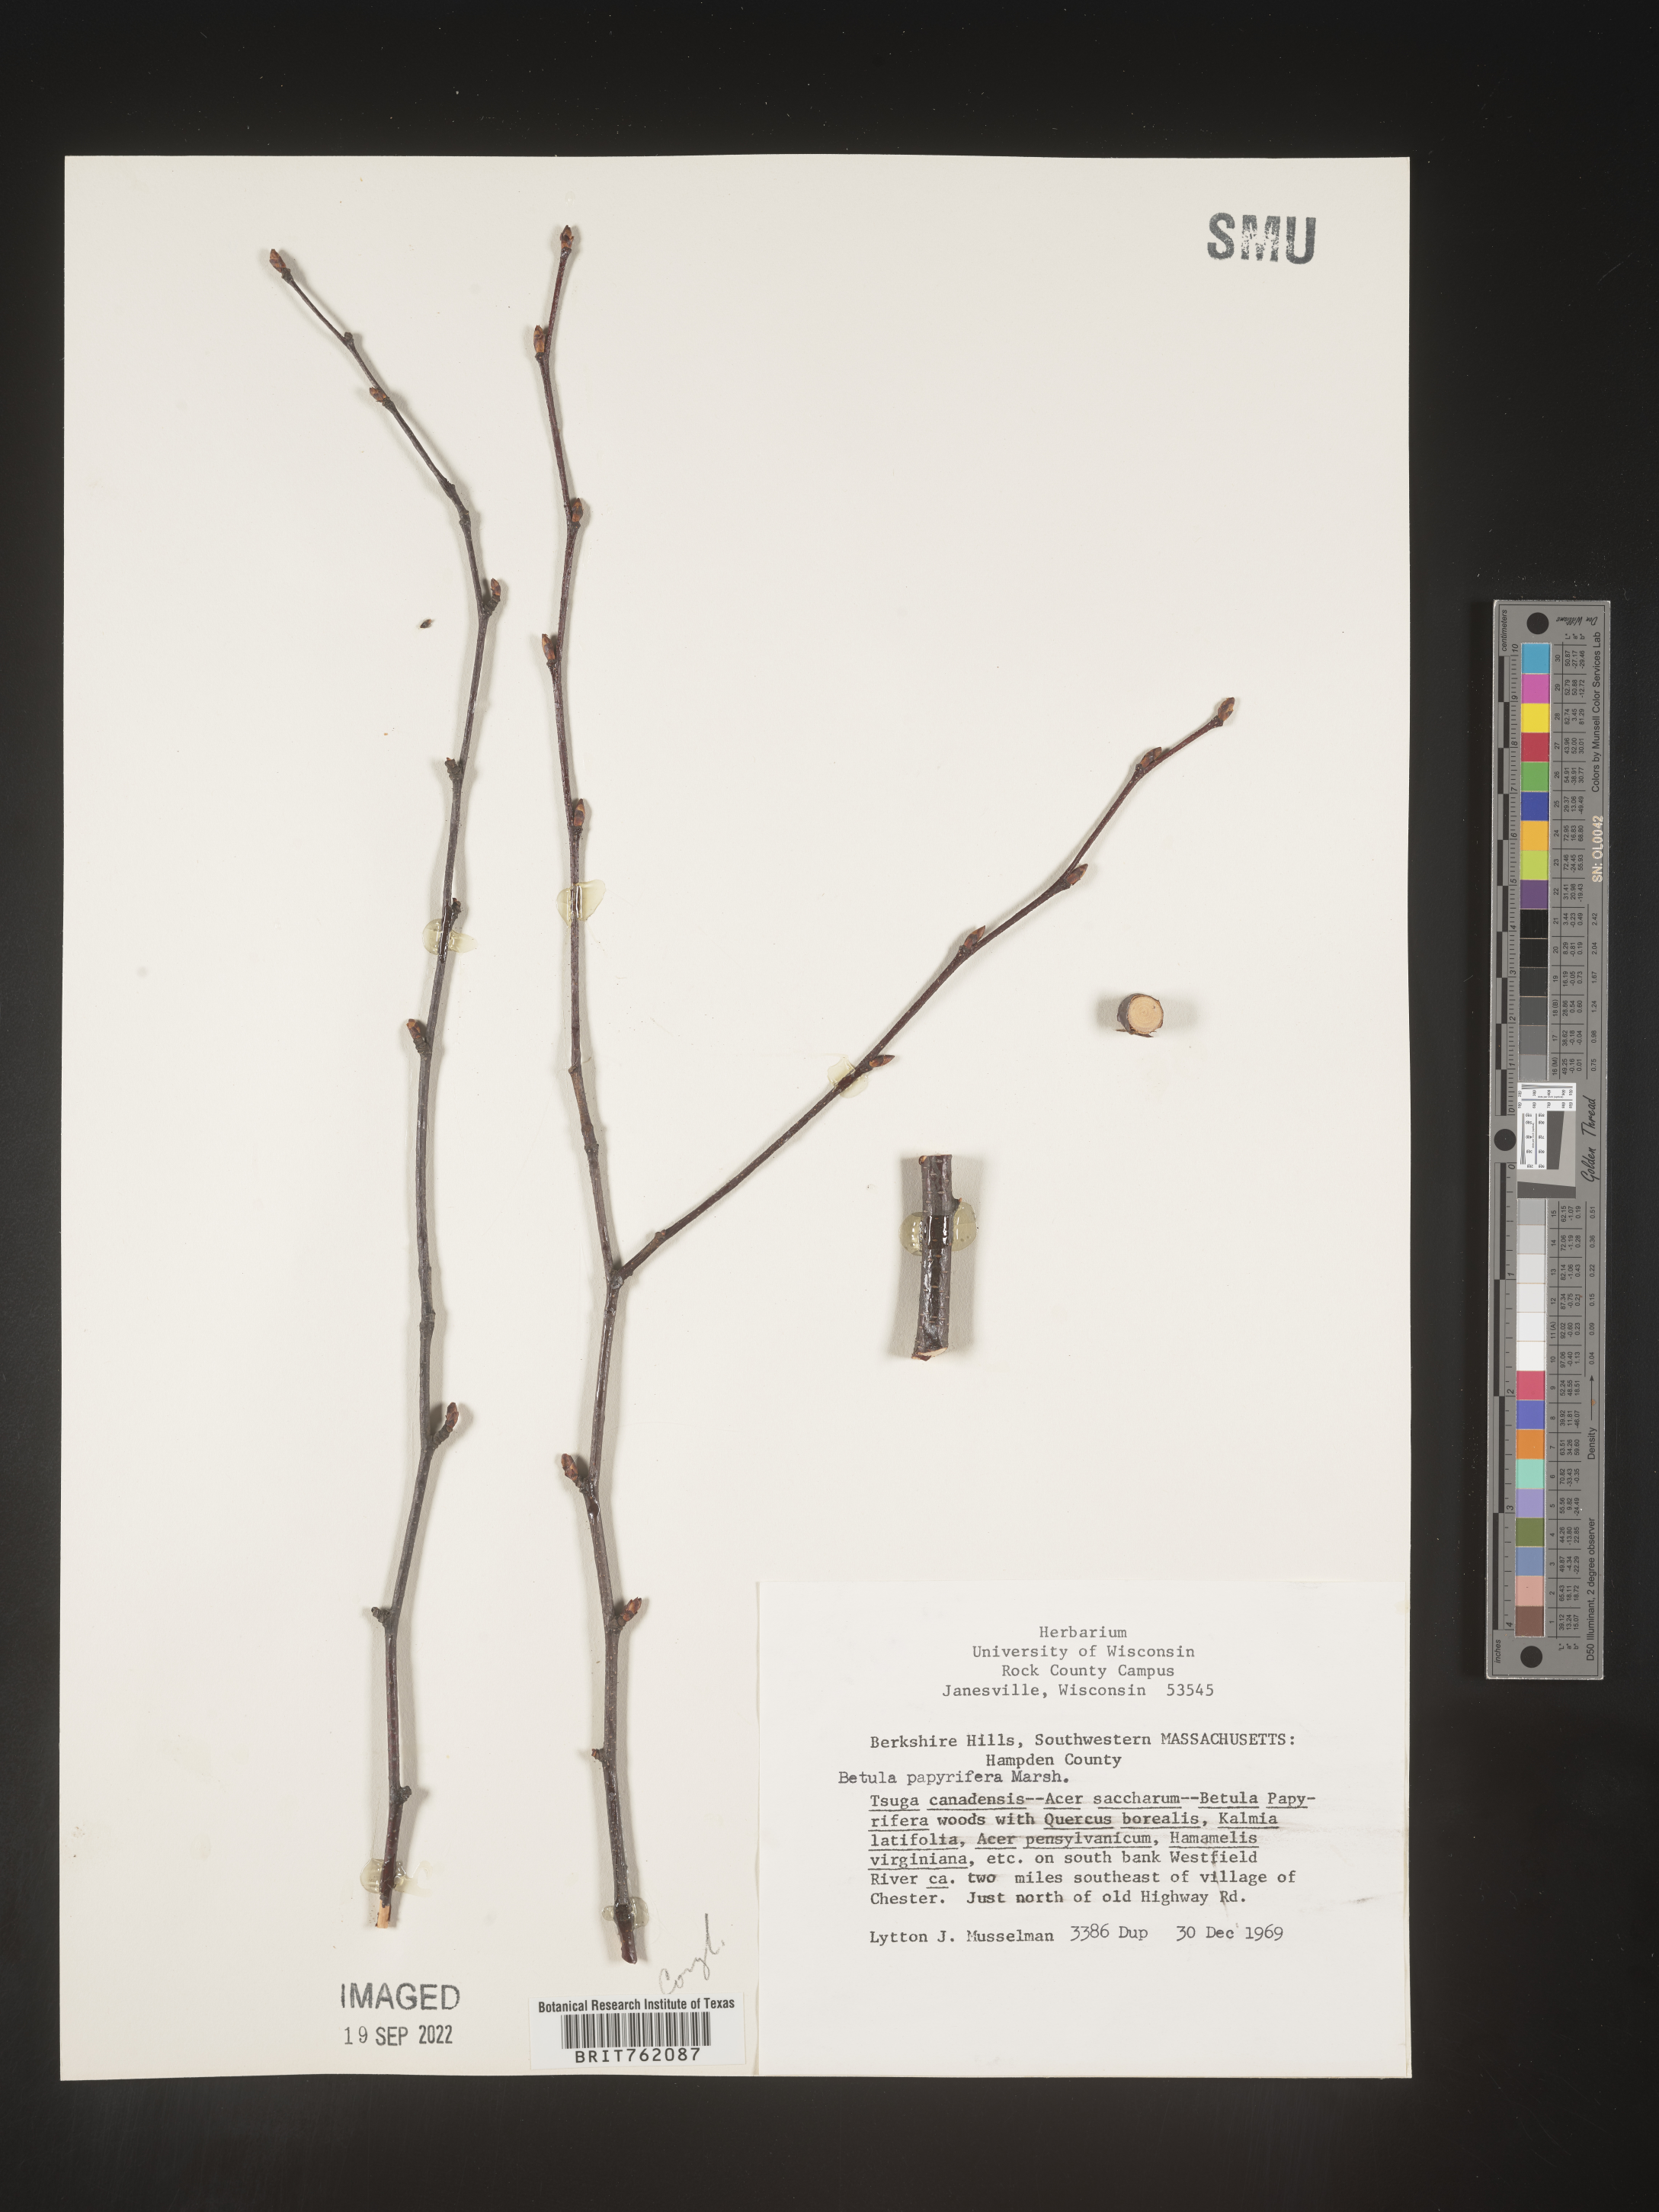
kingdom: Plantae
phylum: Tracheophyta
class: Magnoliopsida
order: Fagales
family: Betulaceae
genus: Betula
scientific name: Betula papyrifera
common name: Paper birch
